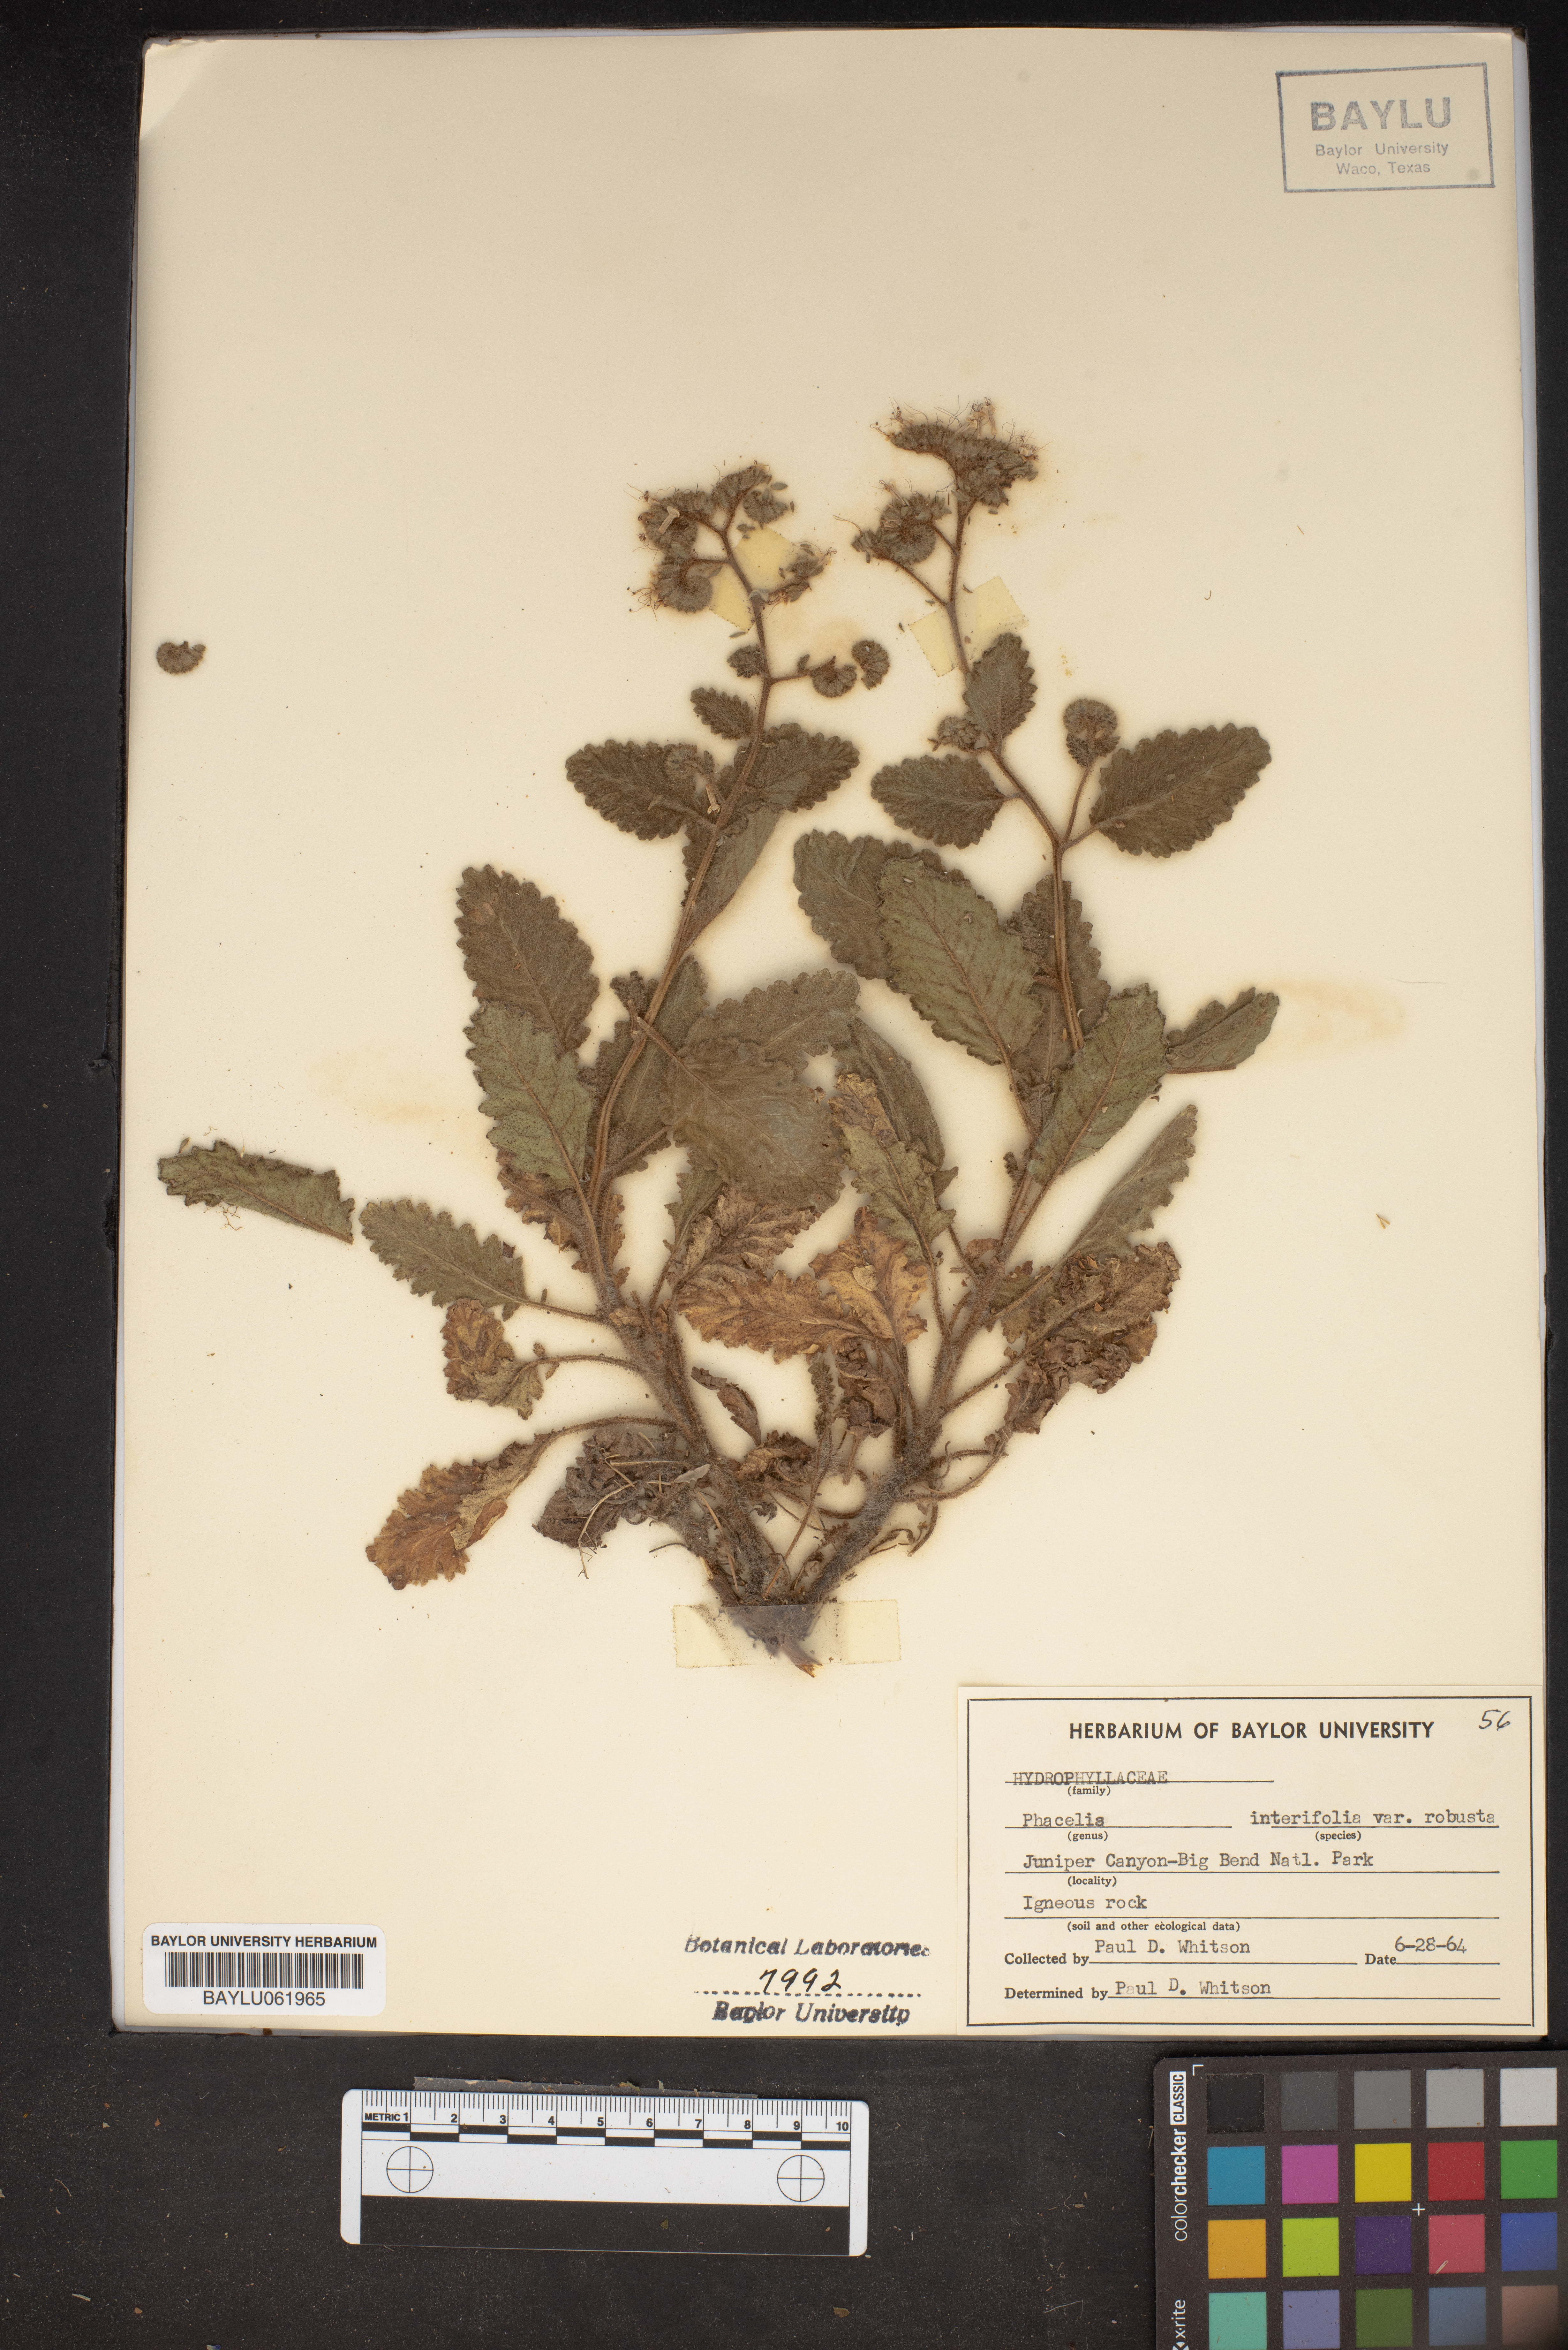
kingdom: Plantae
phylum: Tracheophyta
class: Magnoliopsida
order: Boraginales
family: Hydrophyllaceae
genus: Phacelia
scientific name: Phacelia robusta
